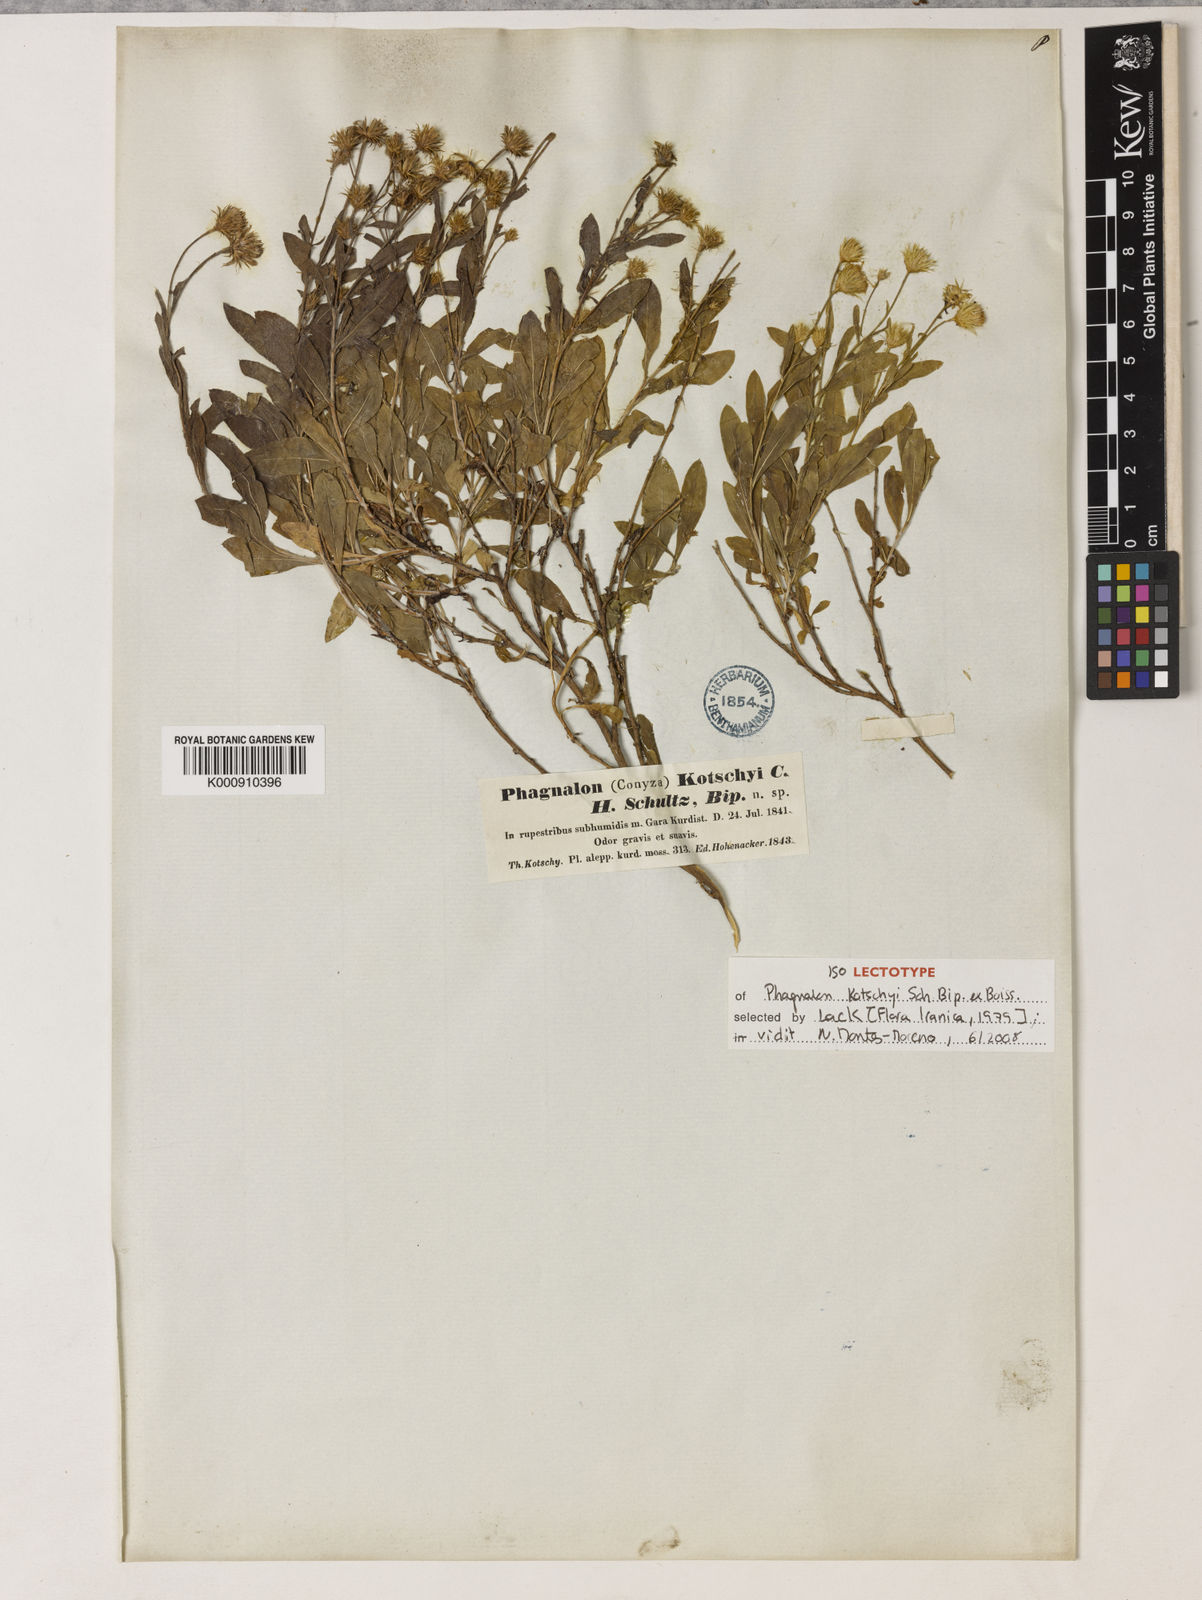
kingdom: Plantae
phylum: Tracheophyta
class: Magnoliopsida
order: Asterales
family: Asteraceae
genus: Phagnalon
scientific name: Phagnalon kotschyi
